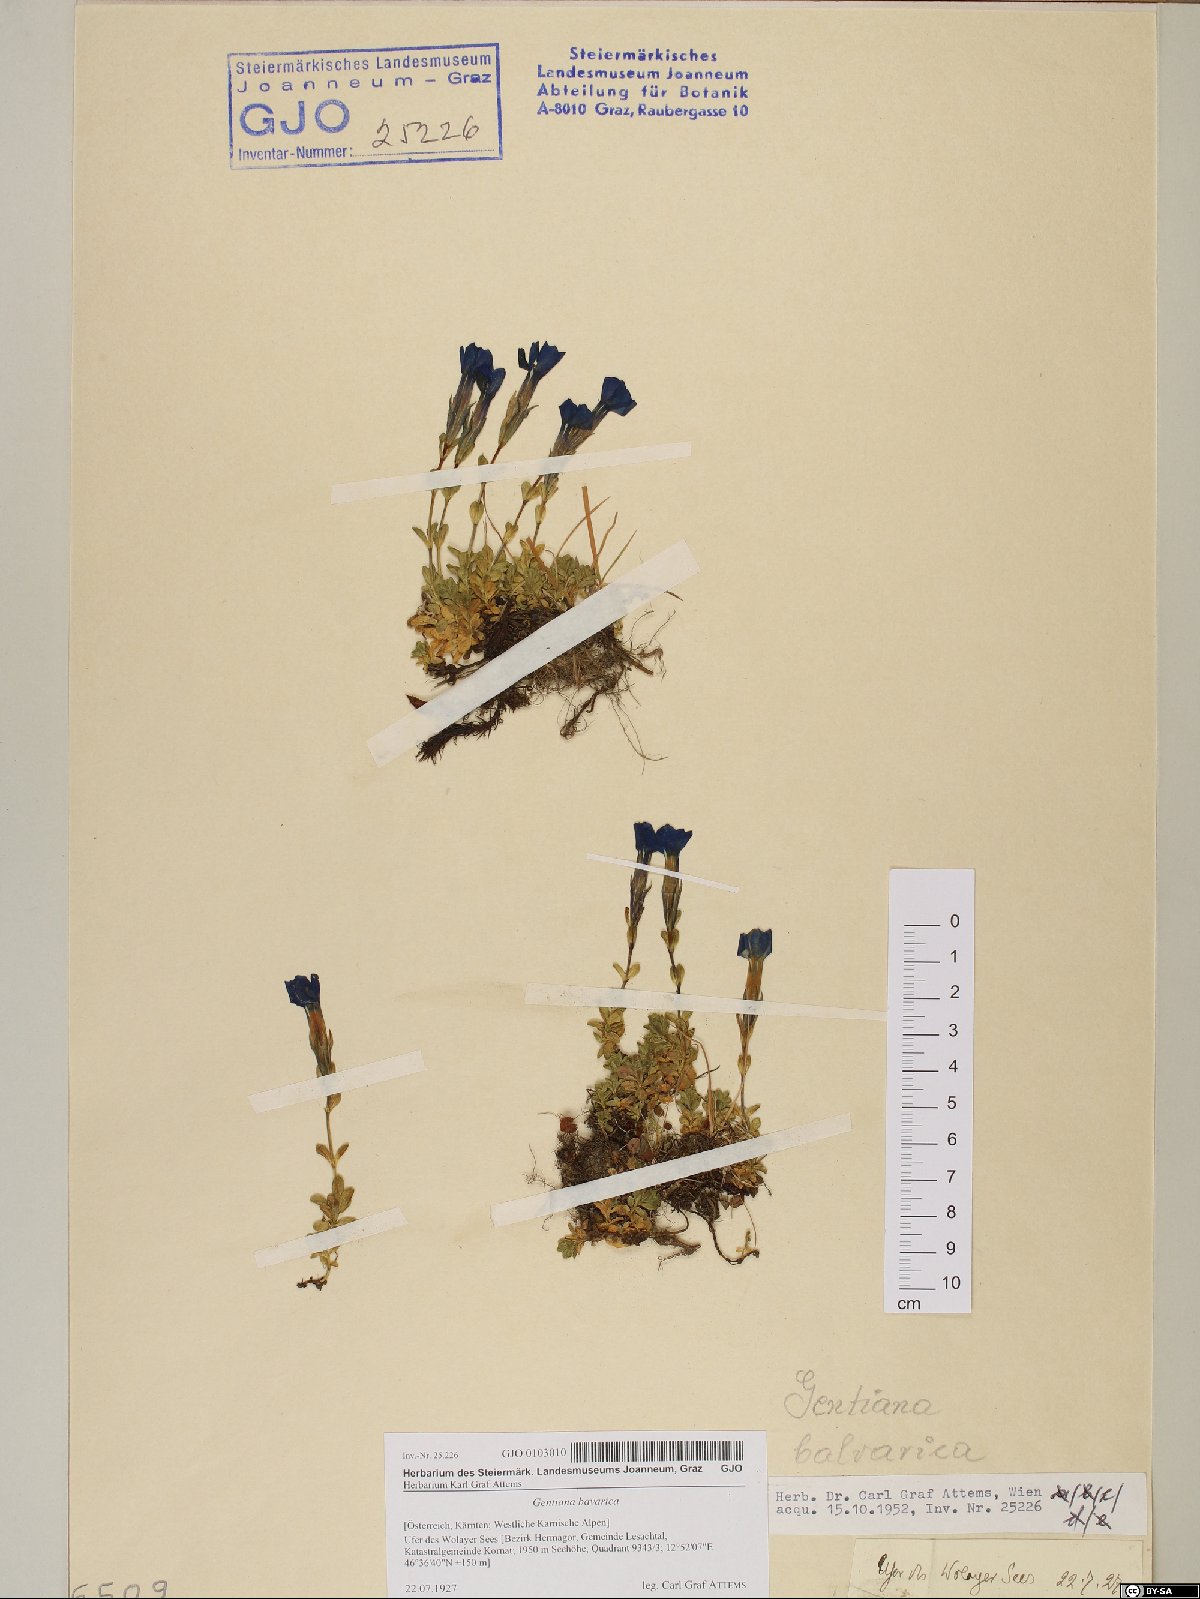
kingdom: Plantae
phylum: Tracheophyta
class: Magnoliopsida
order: Gentianales
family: Gentianaceae
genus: Gentiana
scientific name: Gentiana bavarica
